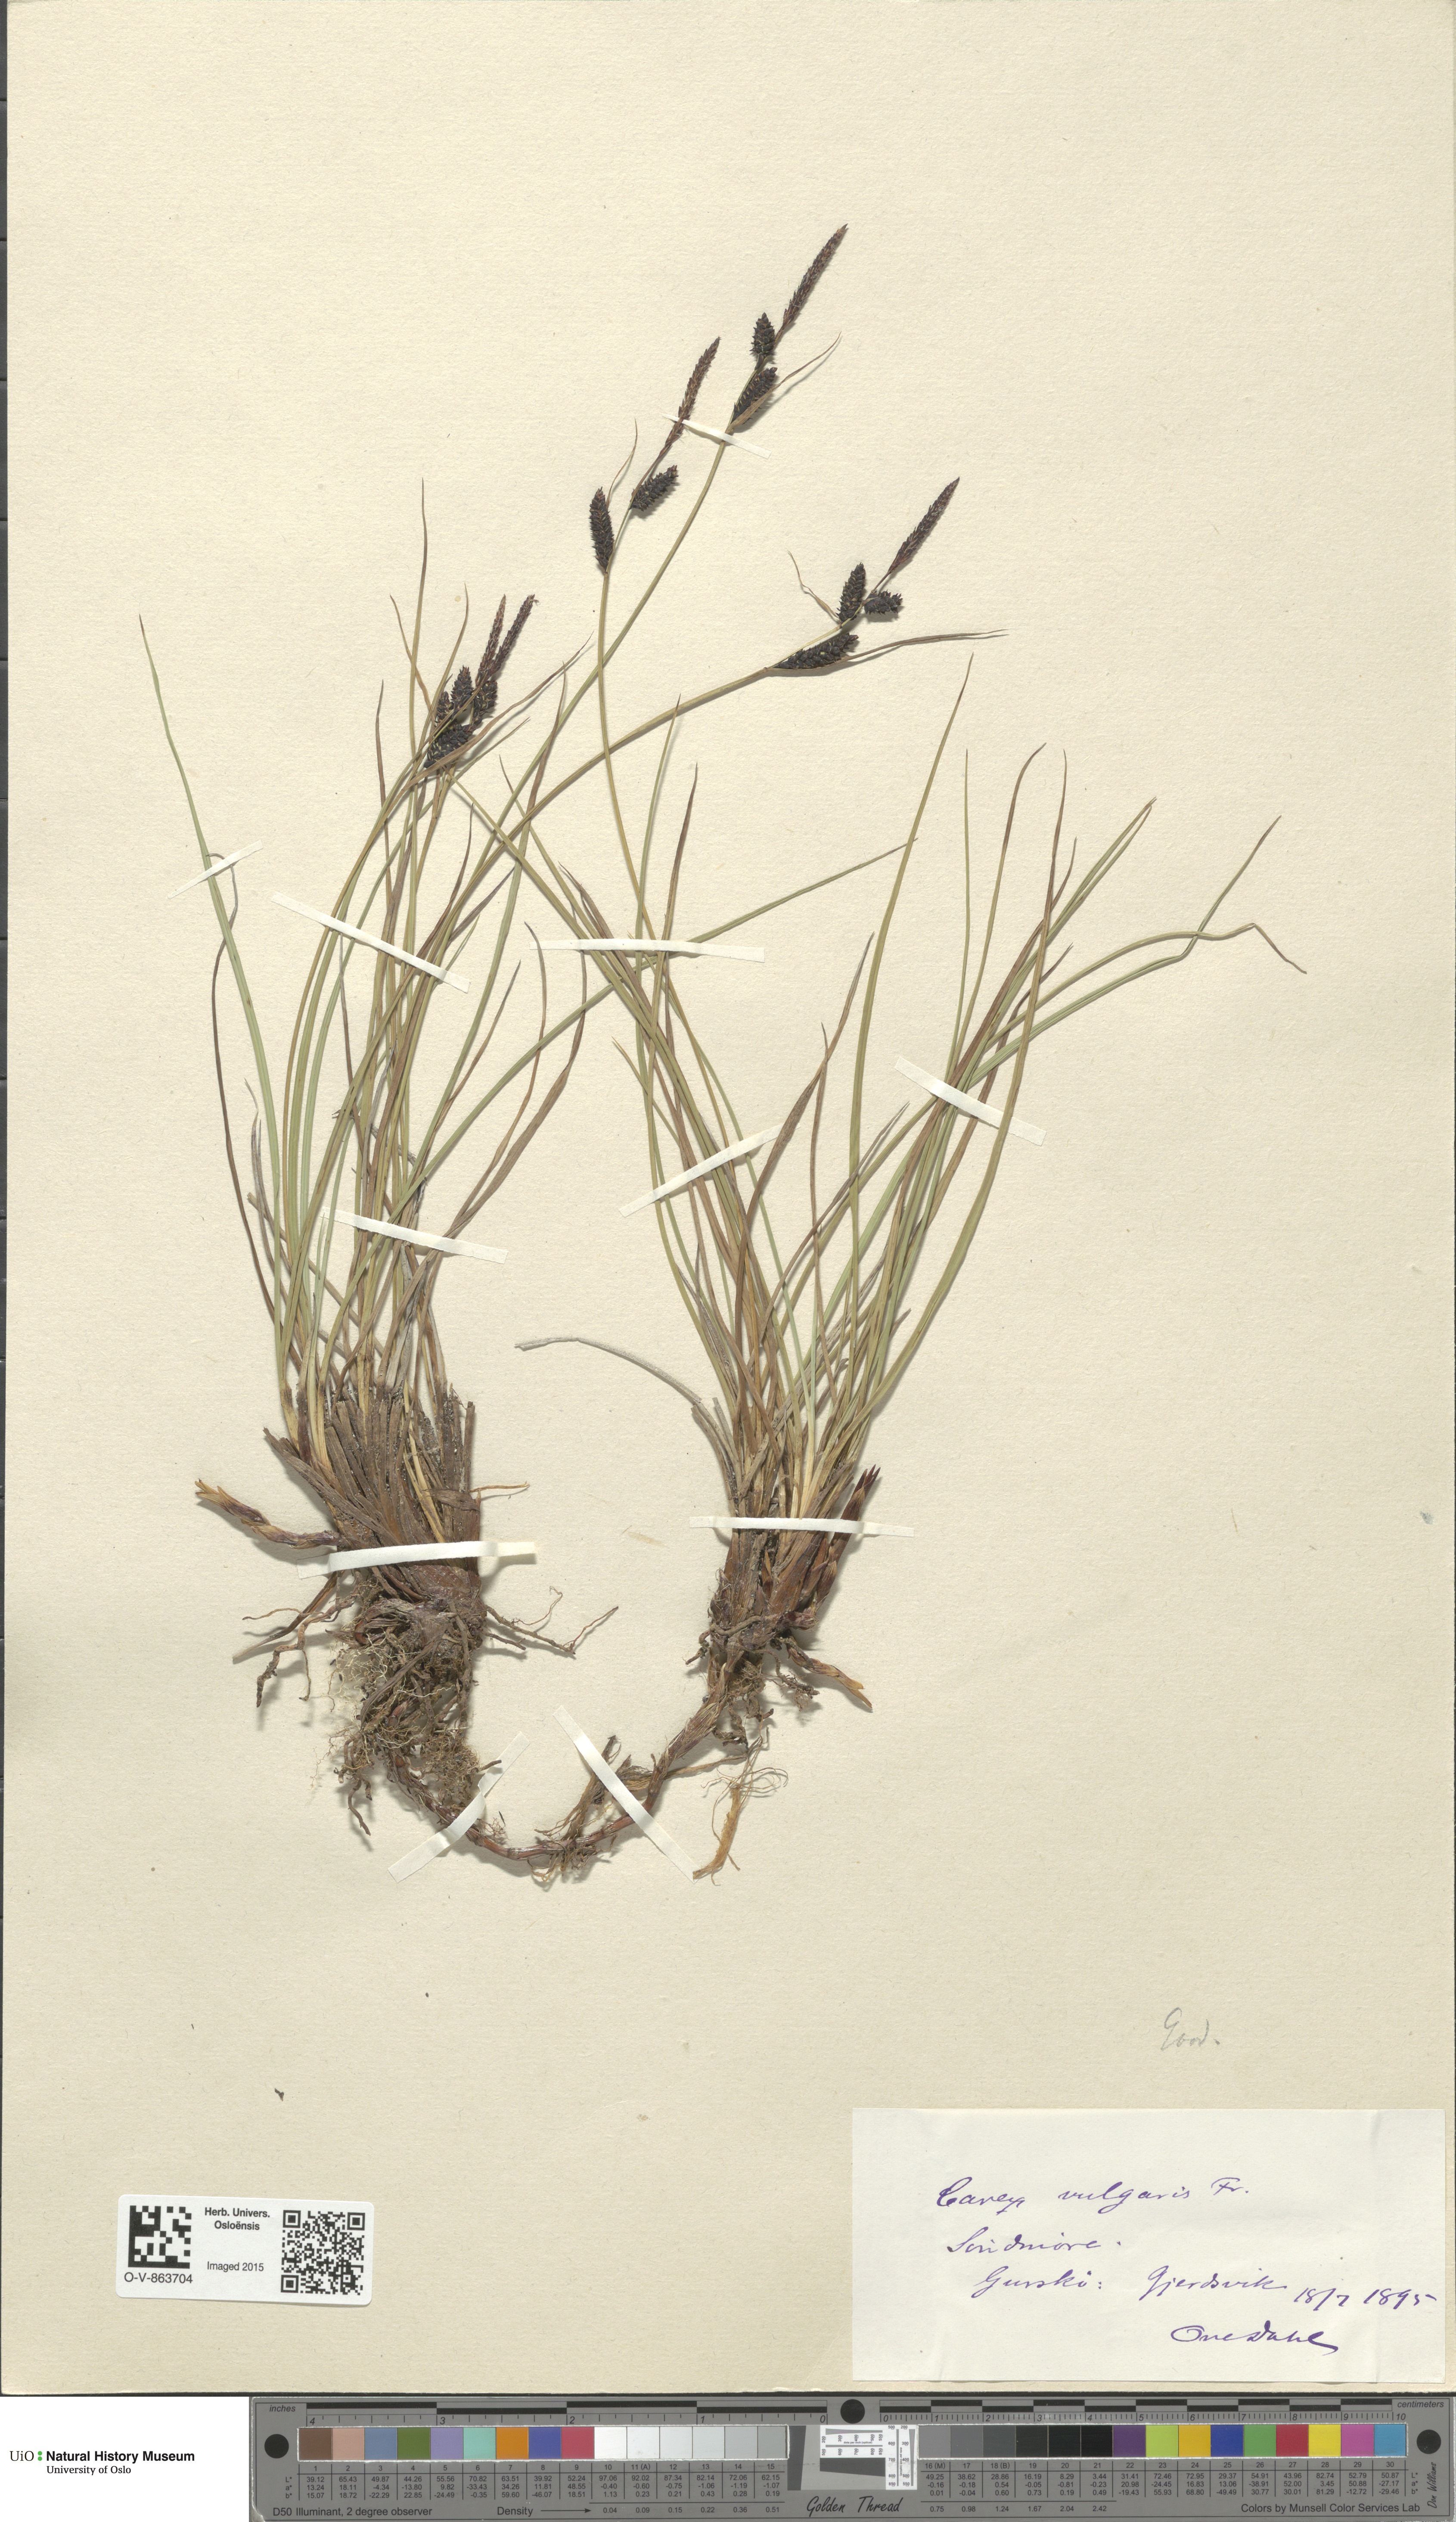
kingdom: Plantae
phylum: Tracheophyta
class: Liliopsida
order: Poales
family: Cyperaceae
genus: Carex
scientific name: Carex nigra
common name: Common sedge
